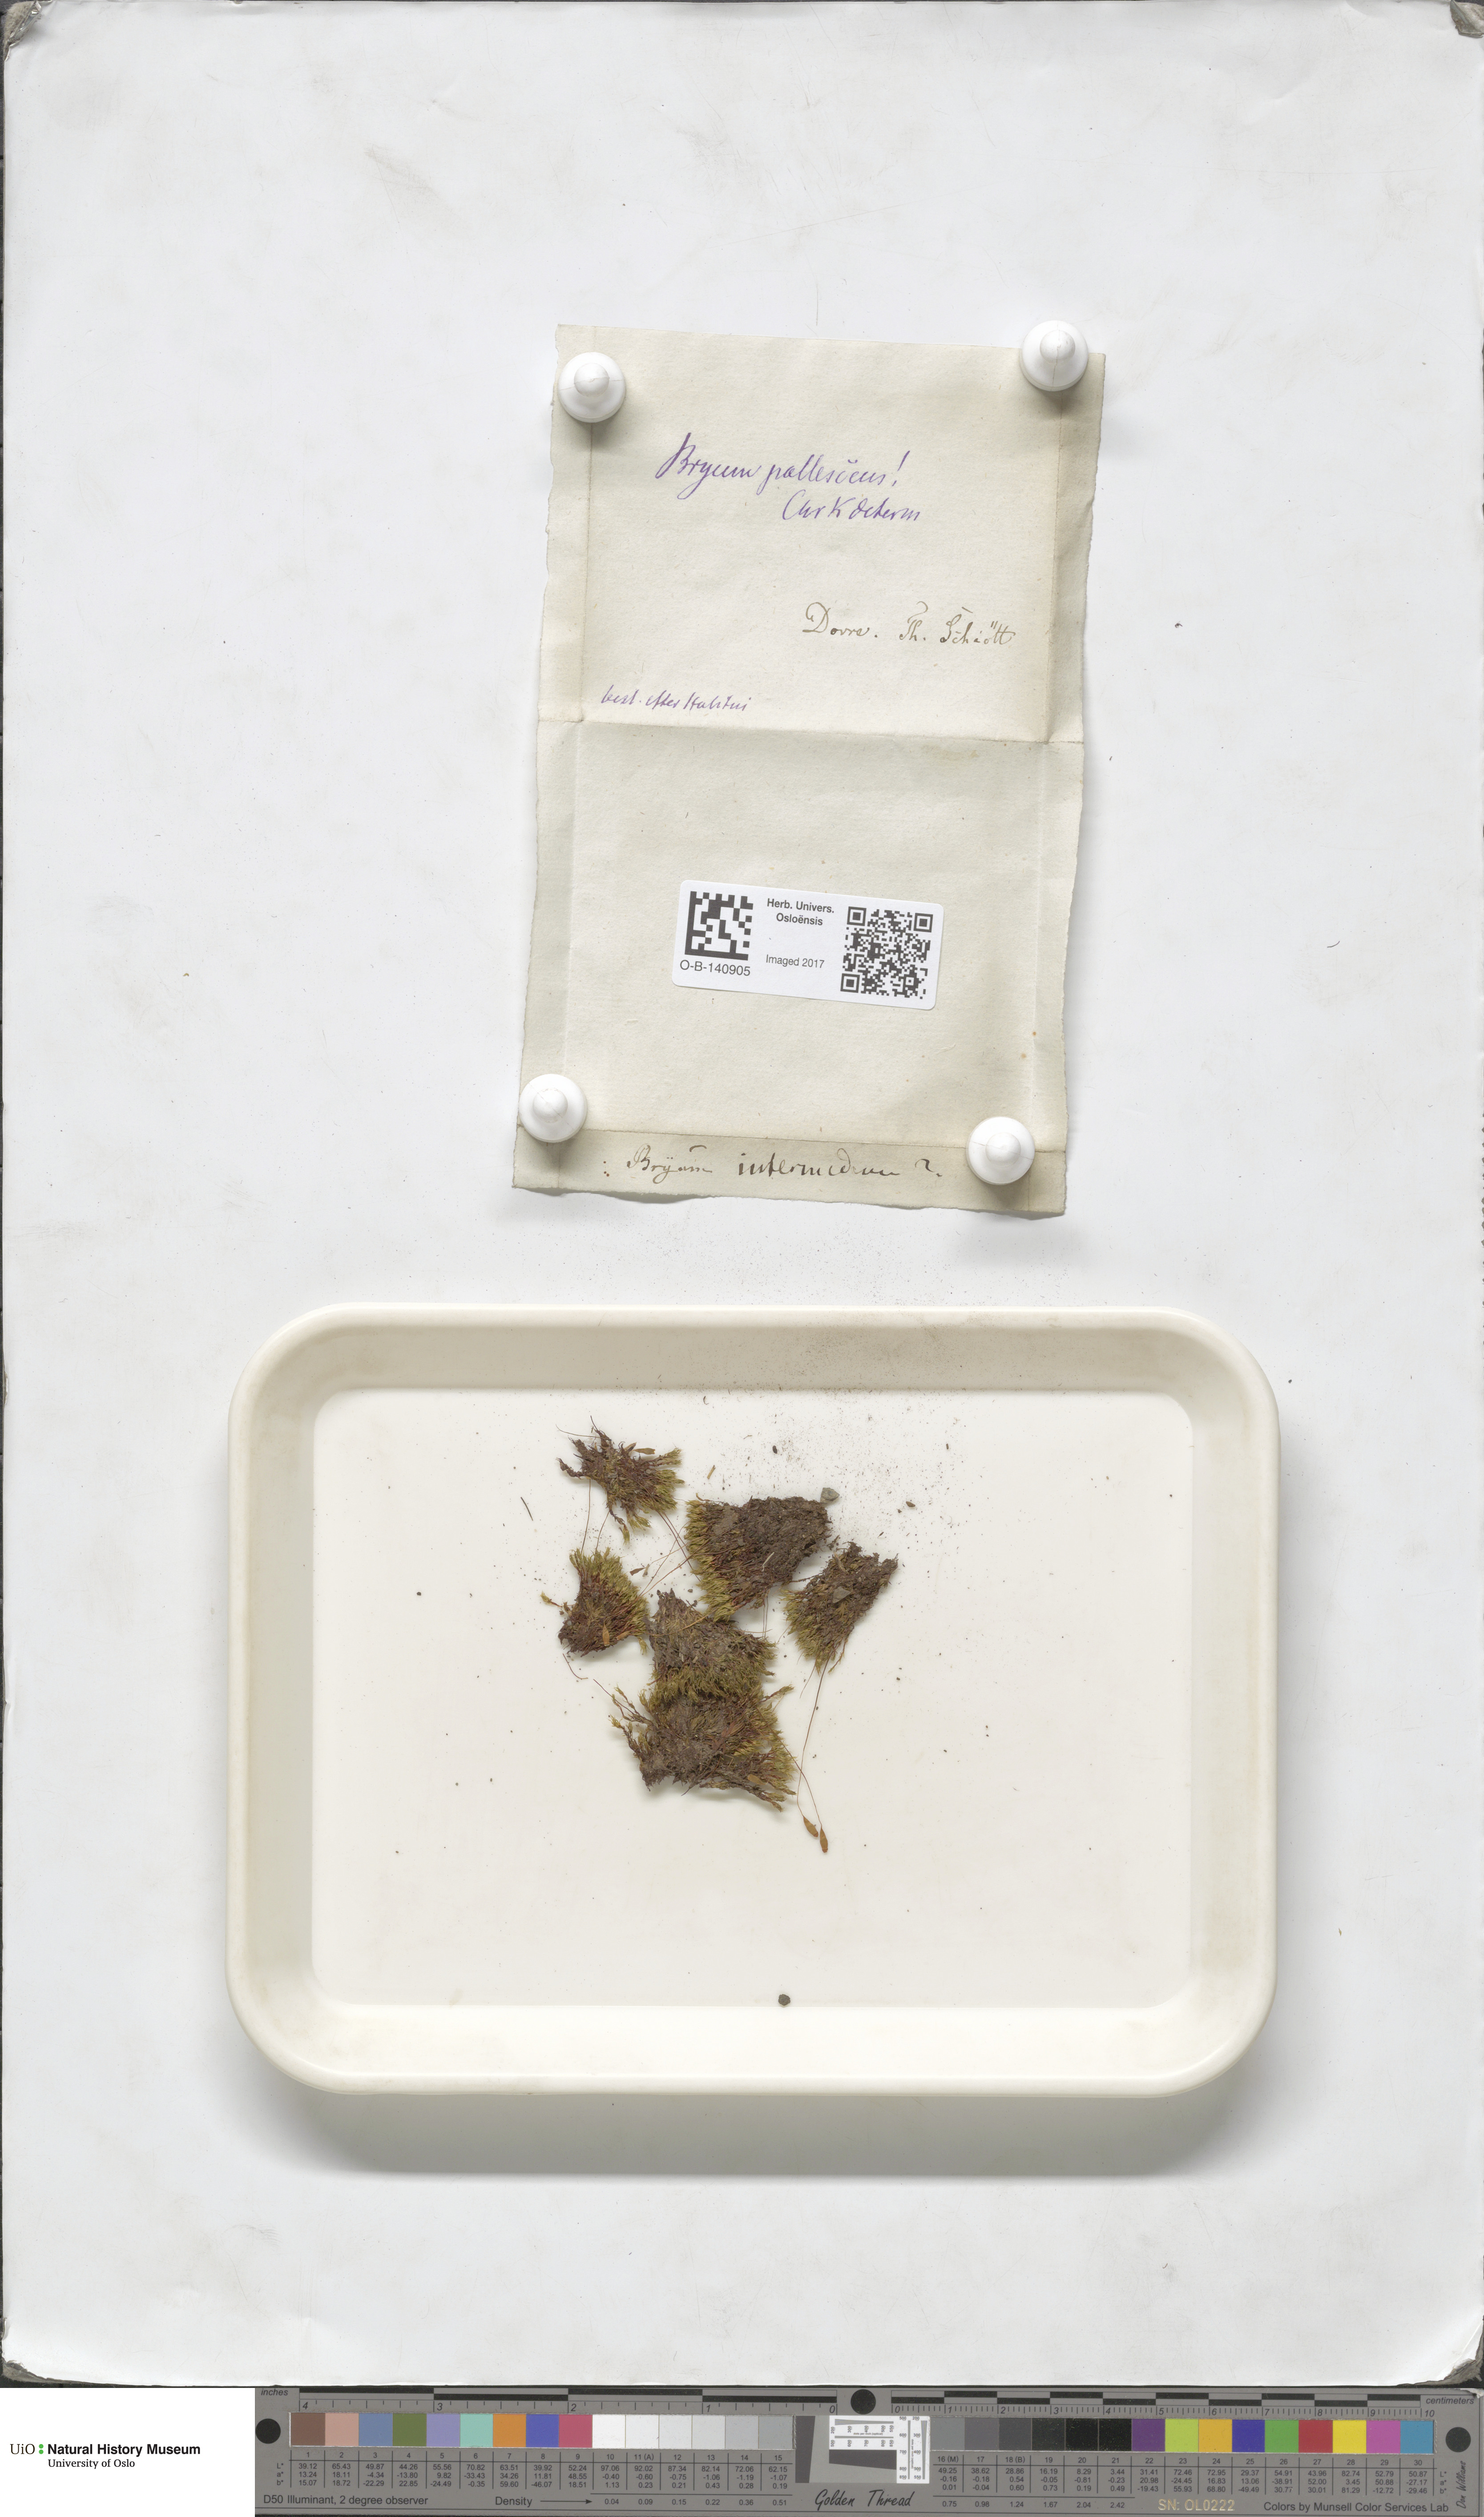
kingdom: Plantae
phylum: Bryophyta
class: Bryopsida
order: Bryales
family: Bryaceae
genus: Ptychostomum
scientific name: Ptychostomum pallescens
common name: Tall-clustered thread-moss
